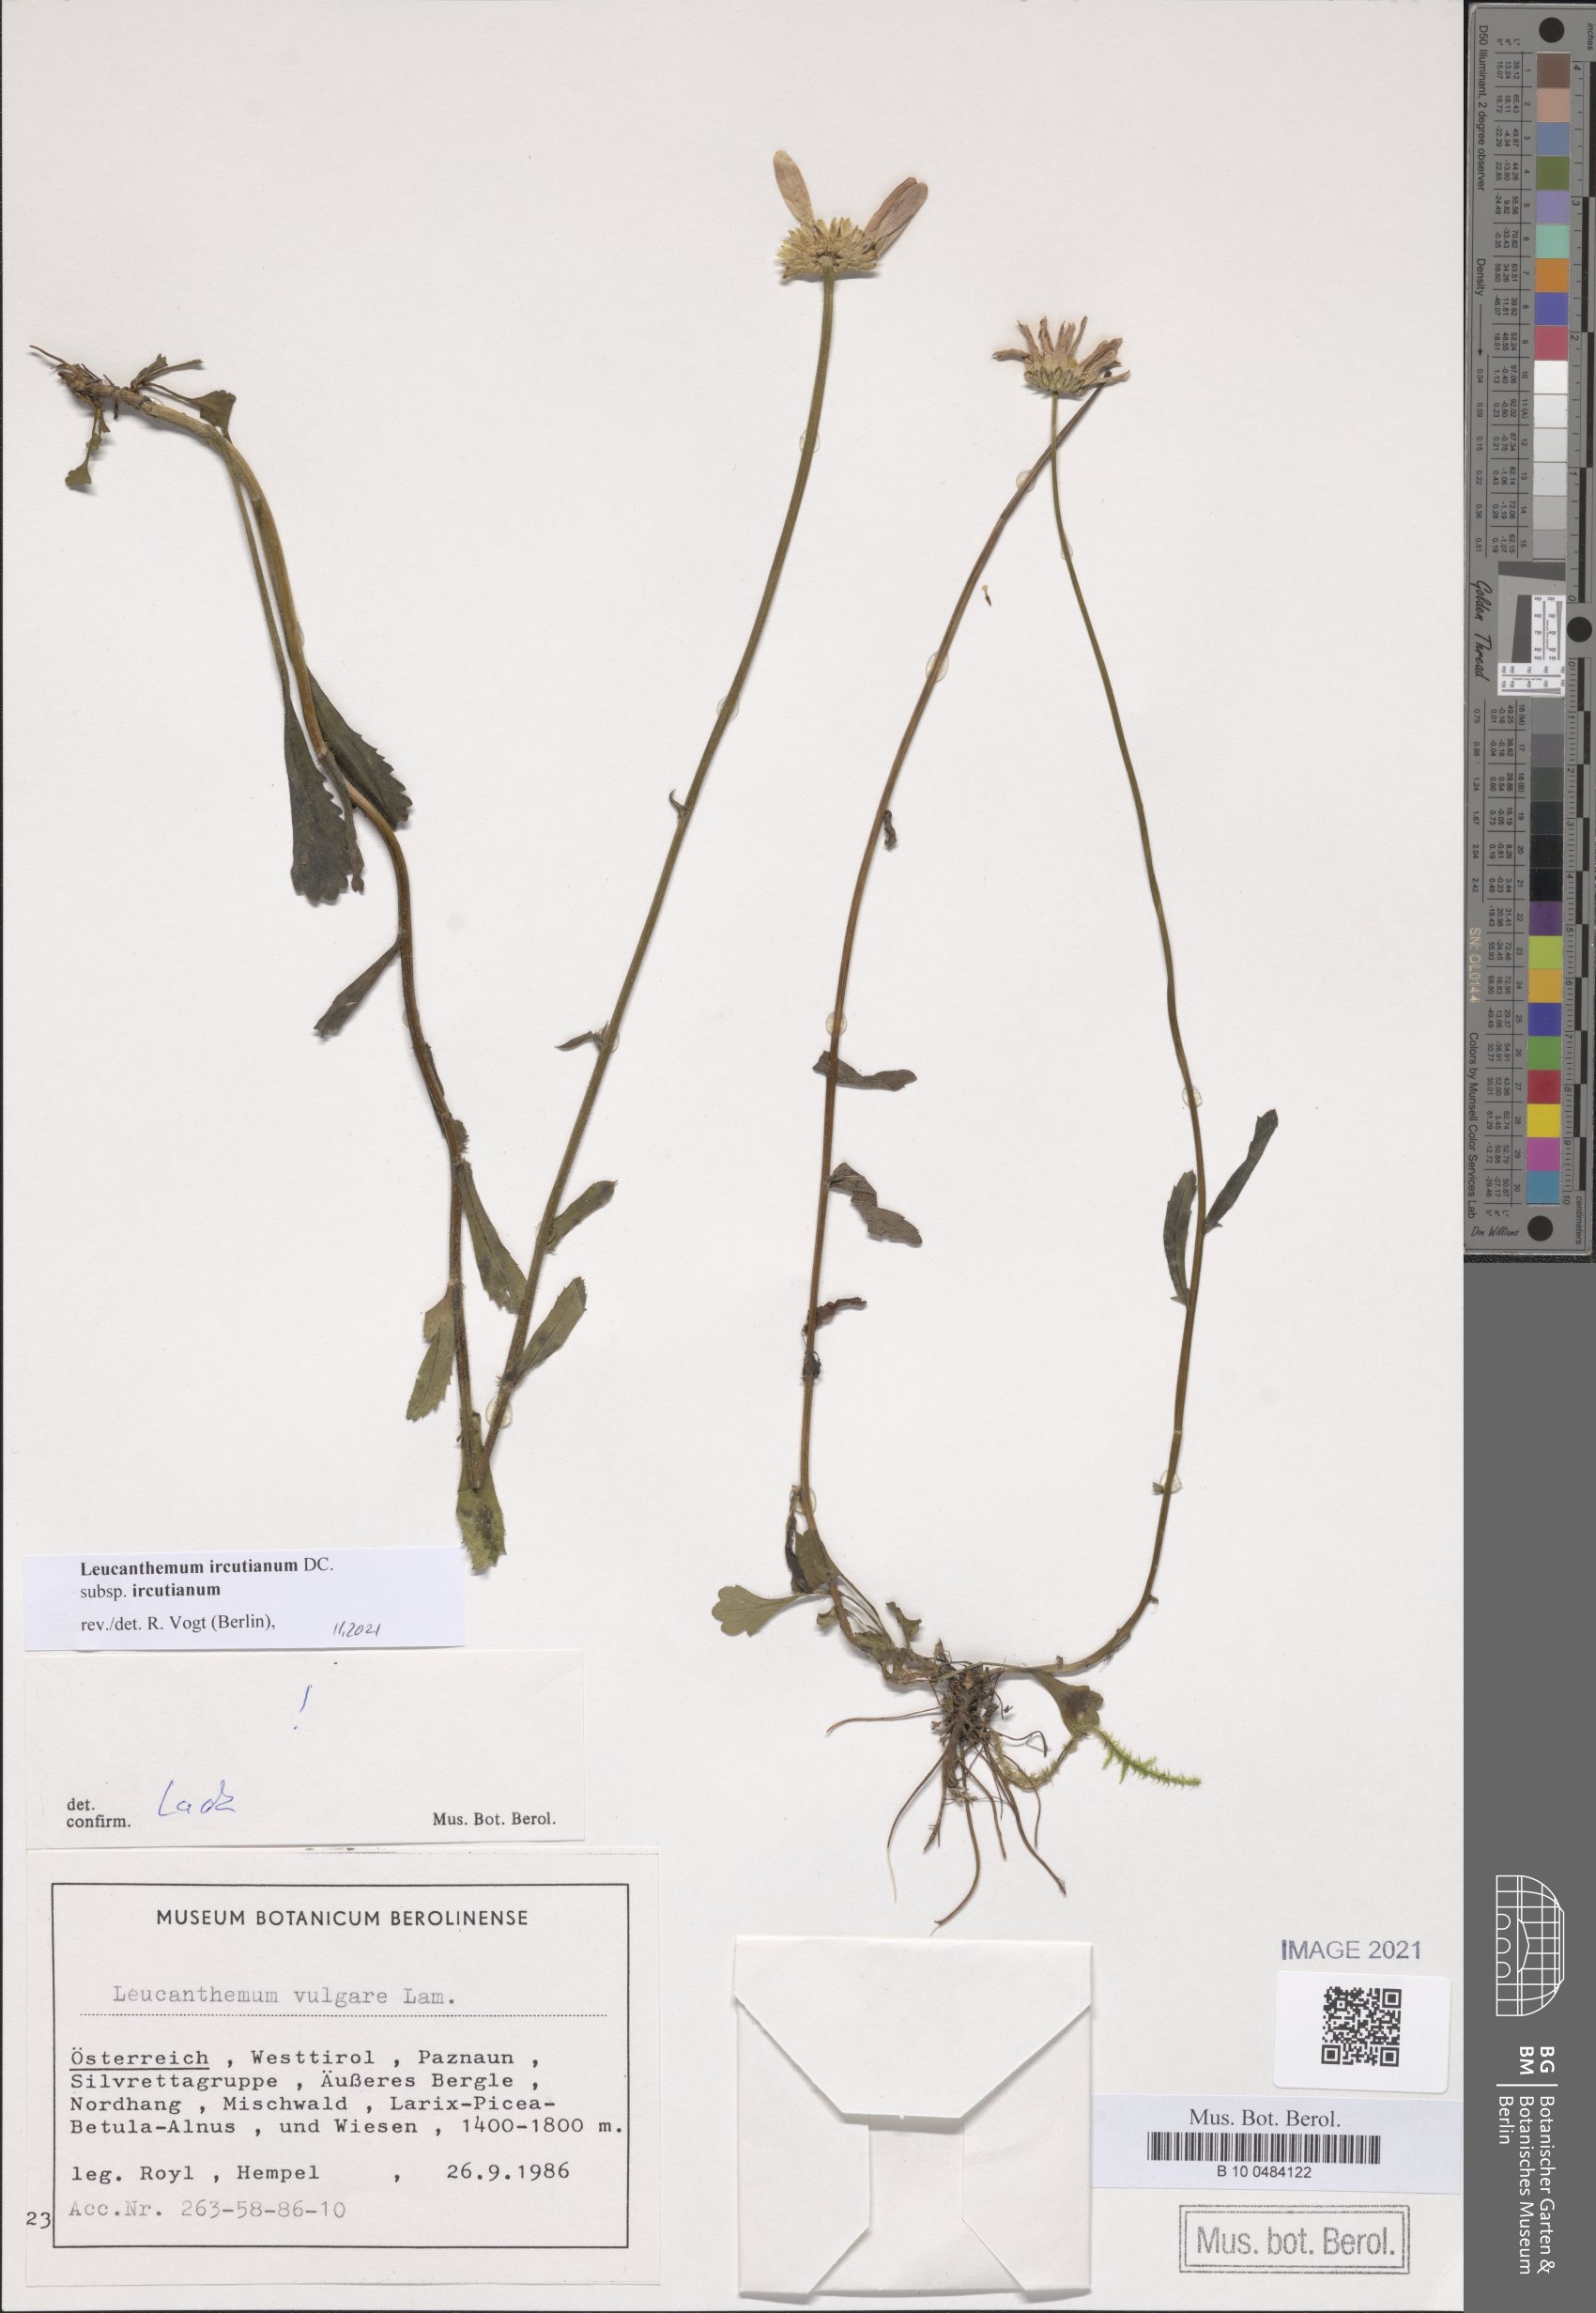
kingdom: Plantae
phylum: Tracheophyta
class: Magnoliopsida
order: Asterales
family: Asteraceae
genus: Leucanthemum
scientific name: Leucanthemum ircutianum
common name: Daisy
